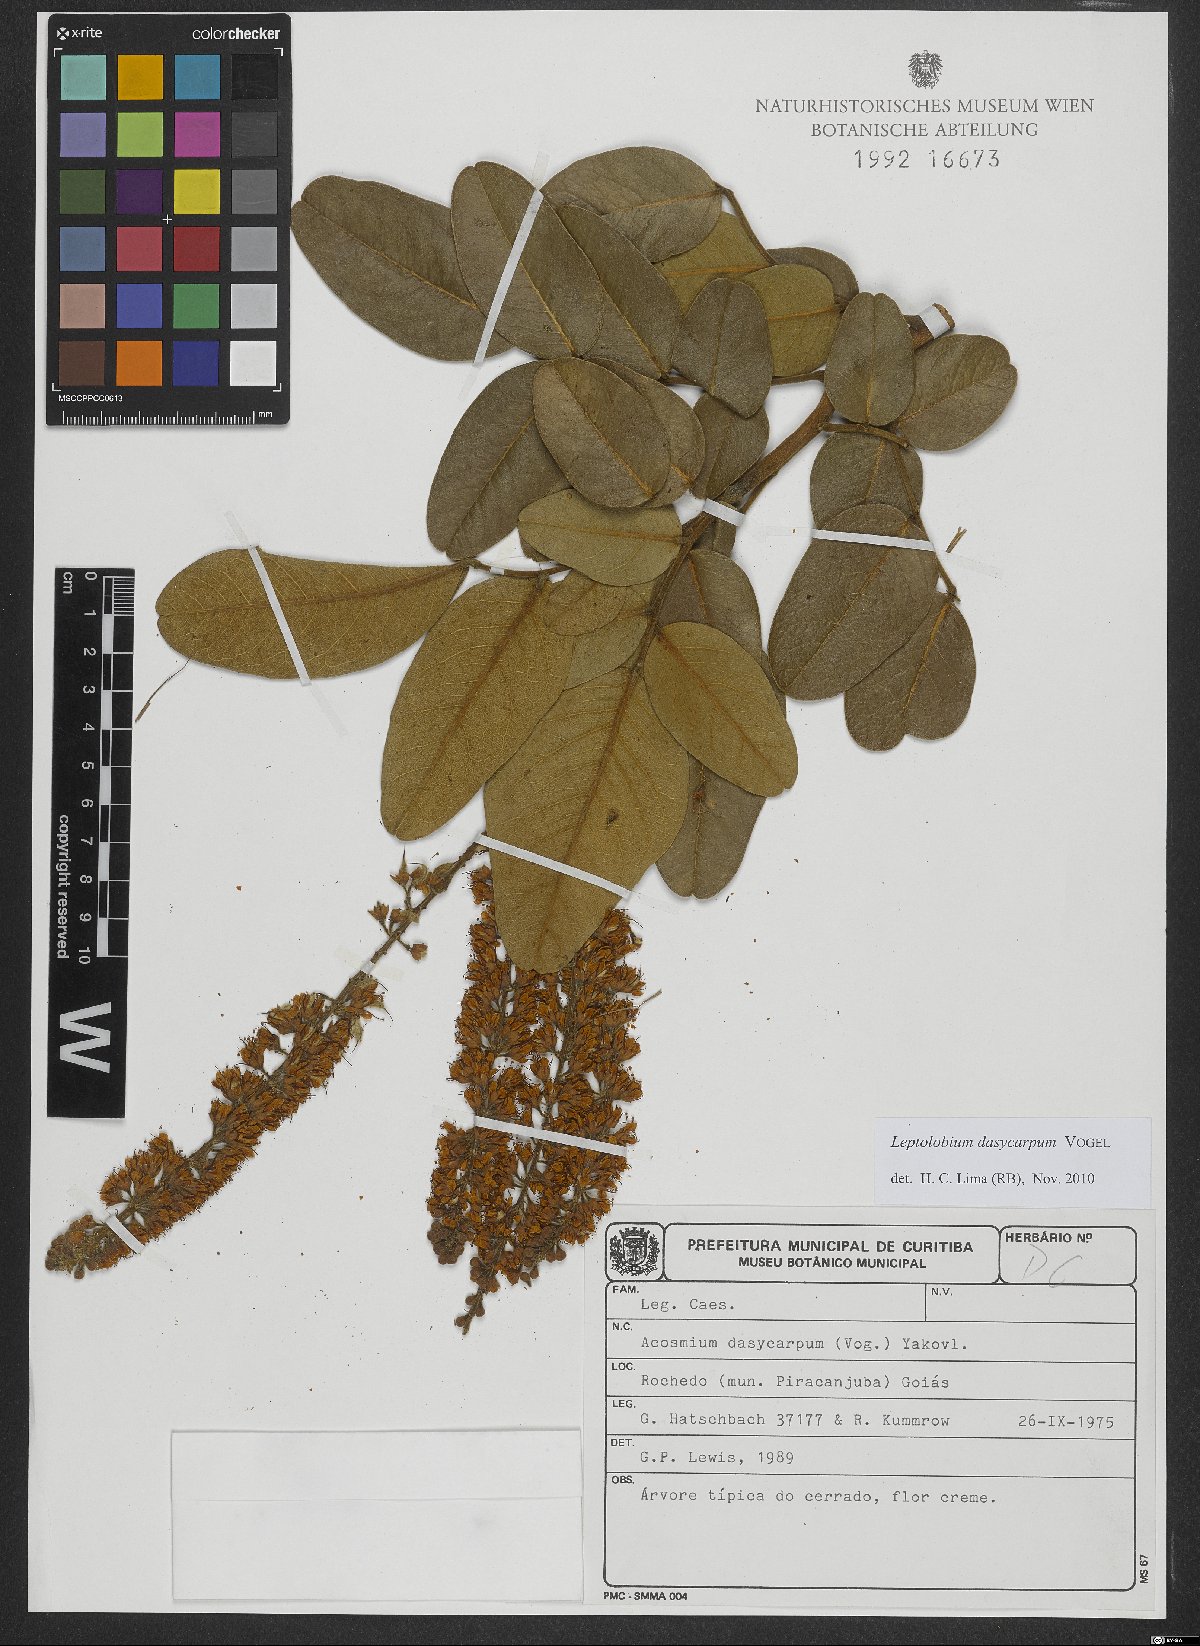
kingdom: Plantae
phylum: Tracheophyta
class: Magnoliopsida
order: Fabales
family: Fabaceae
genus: Leptolobium
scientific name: Leptolobium dasycarpum
